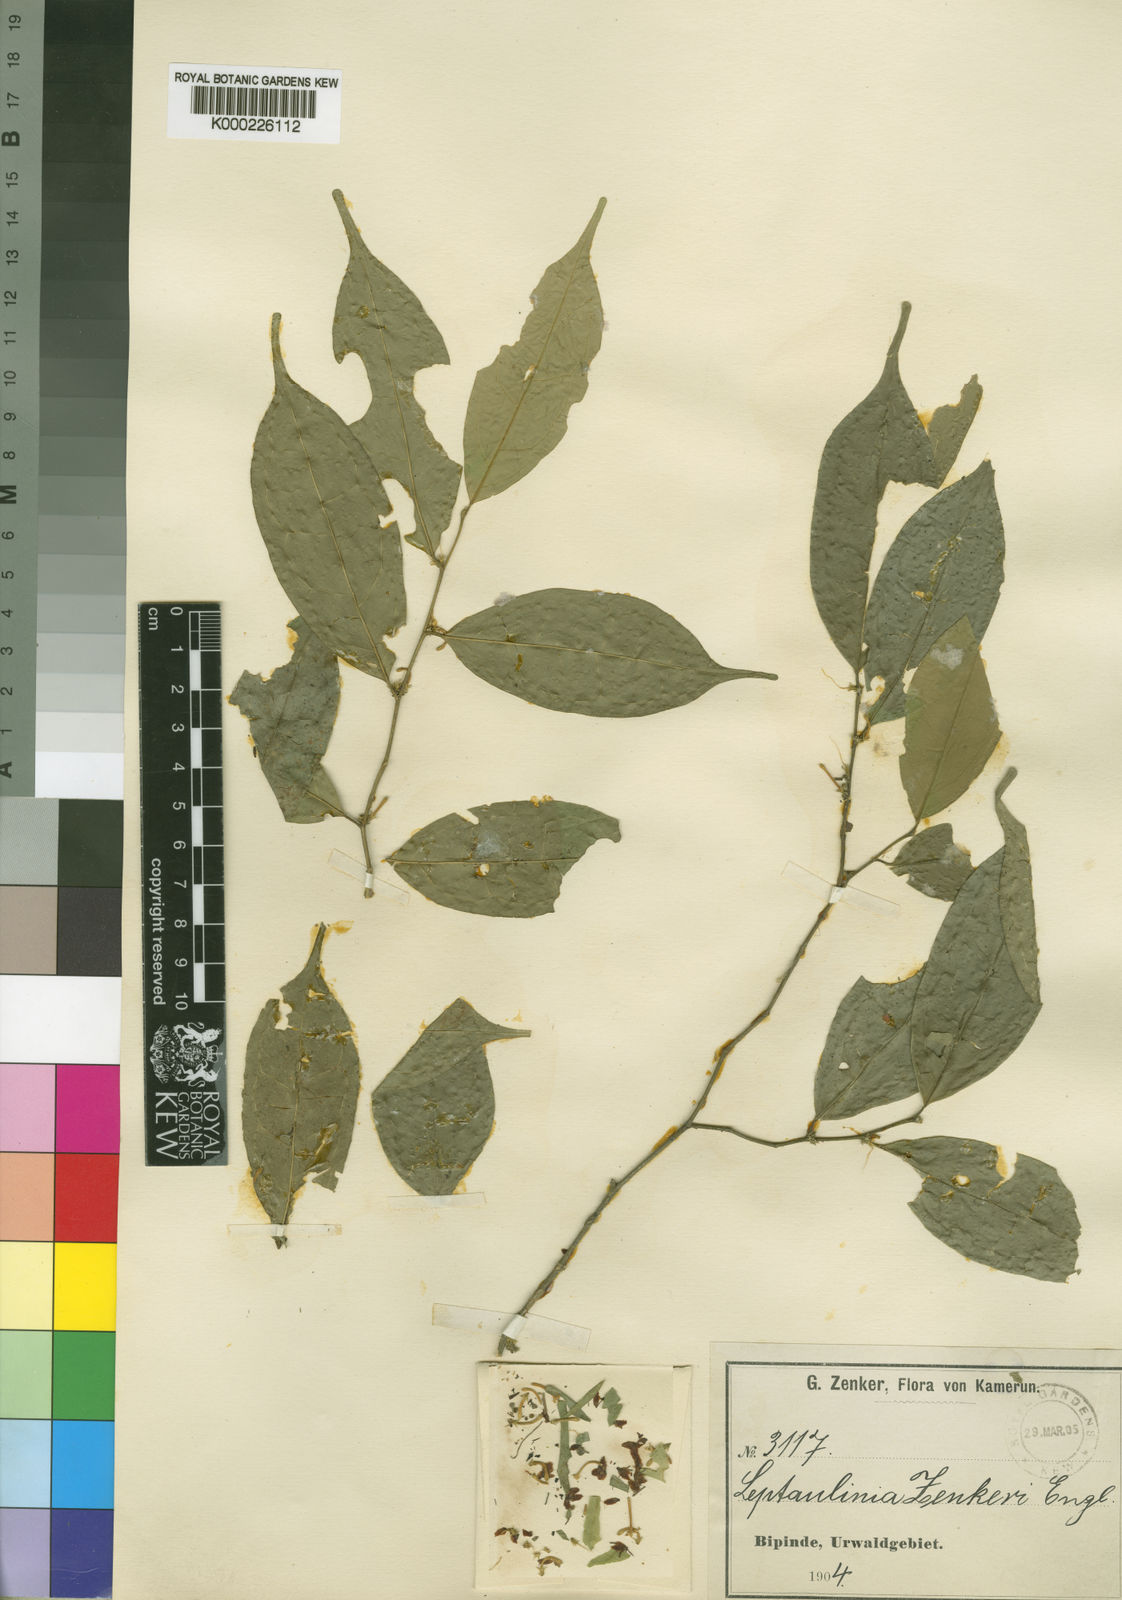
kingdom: Plantae
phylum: Tracheophyta
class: Magnoliopsida
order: Cardiopteridales
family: Cardiopteridaceae
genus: Leptaulus
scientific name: Leptaulus congolanus
